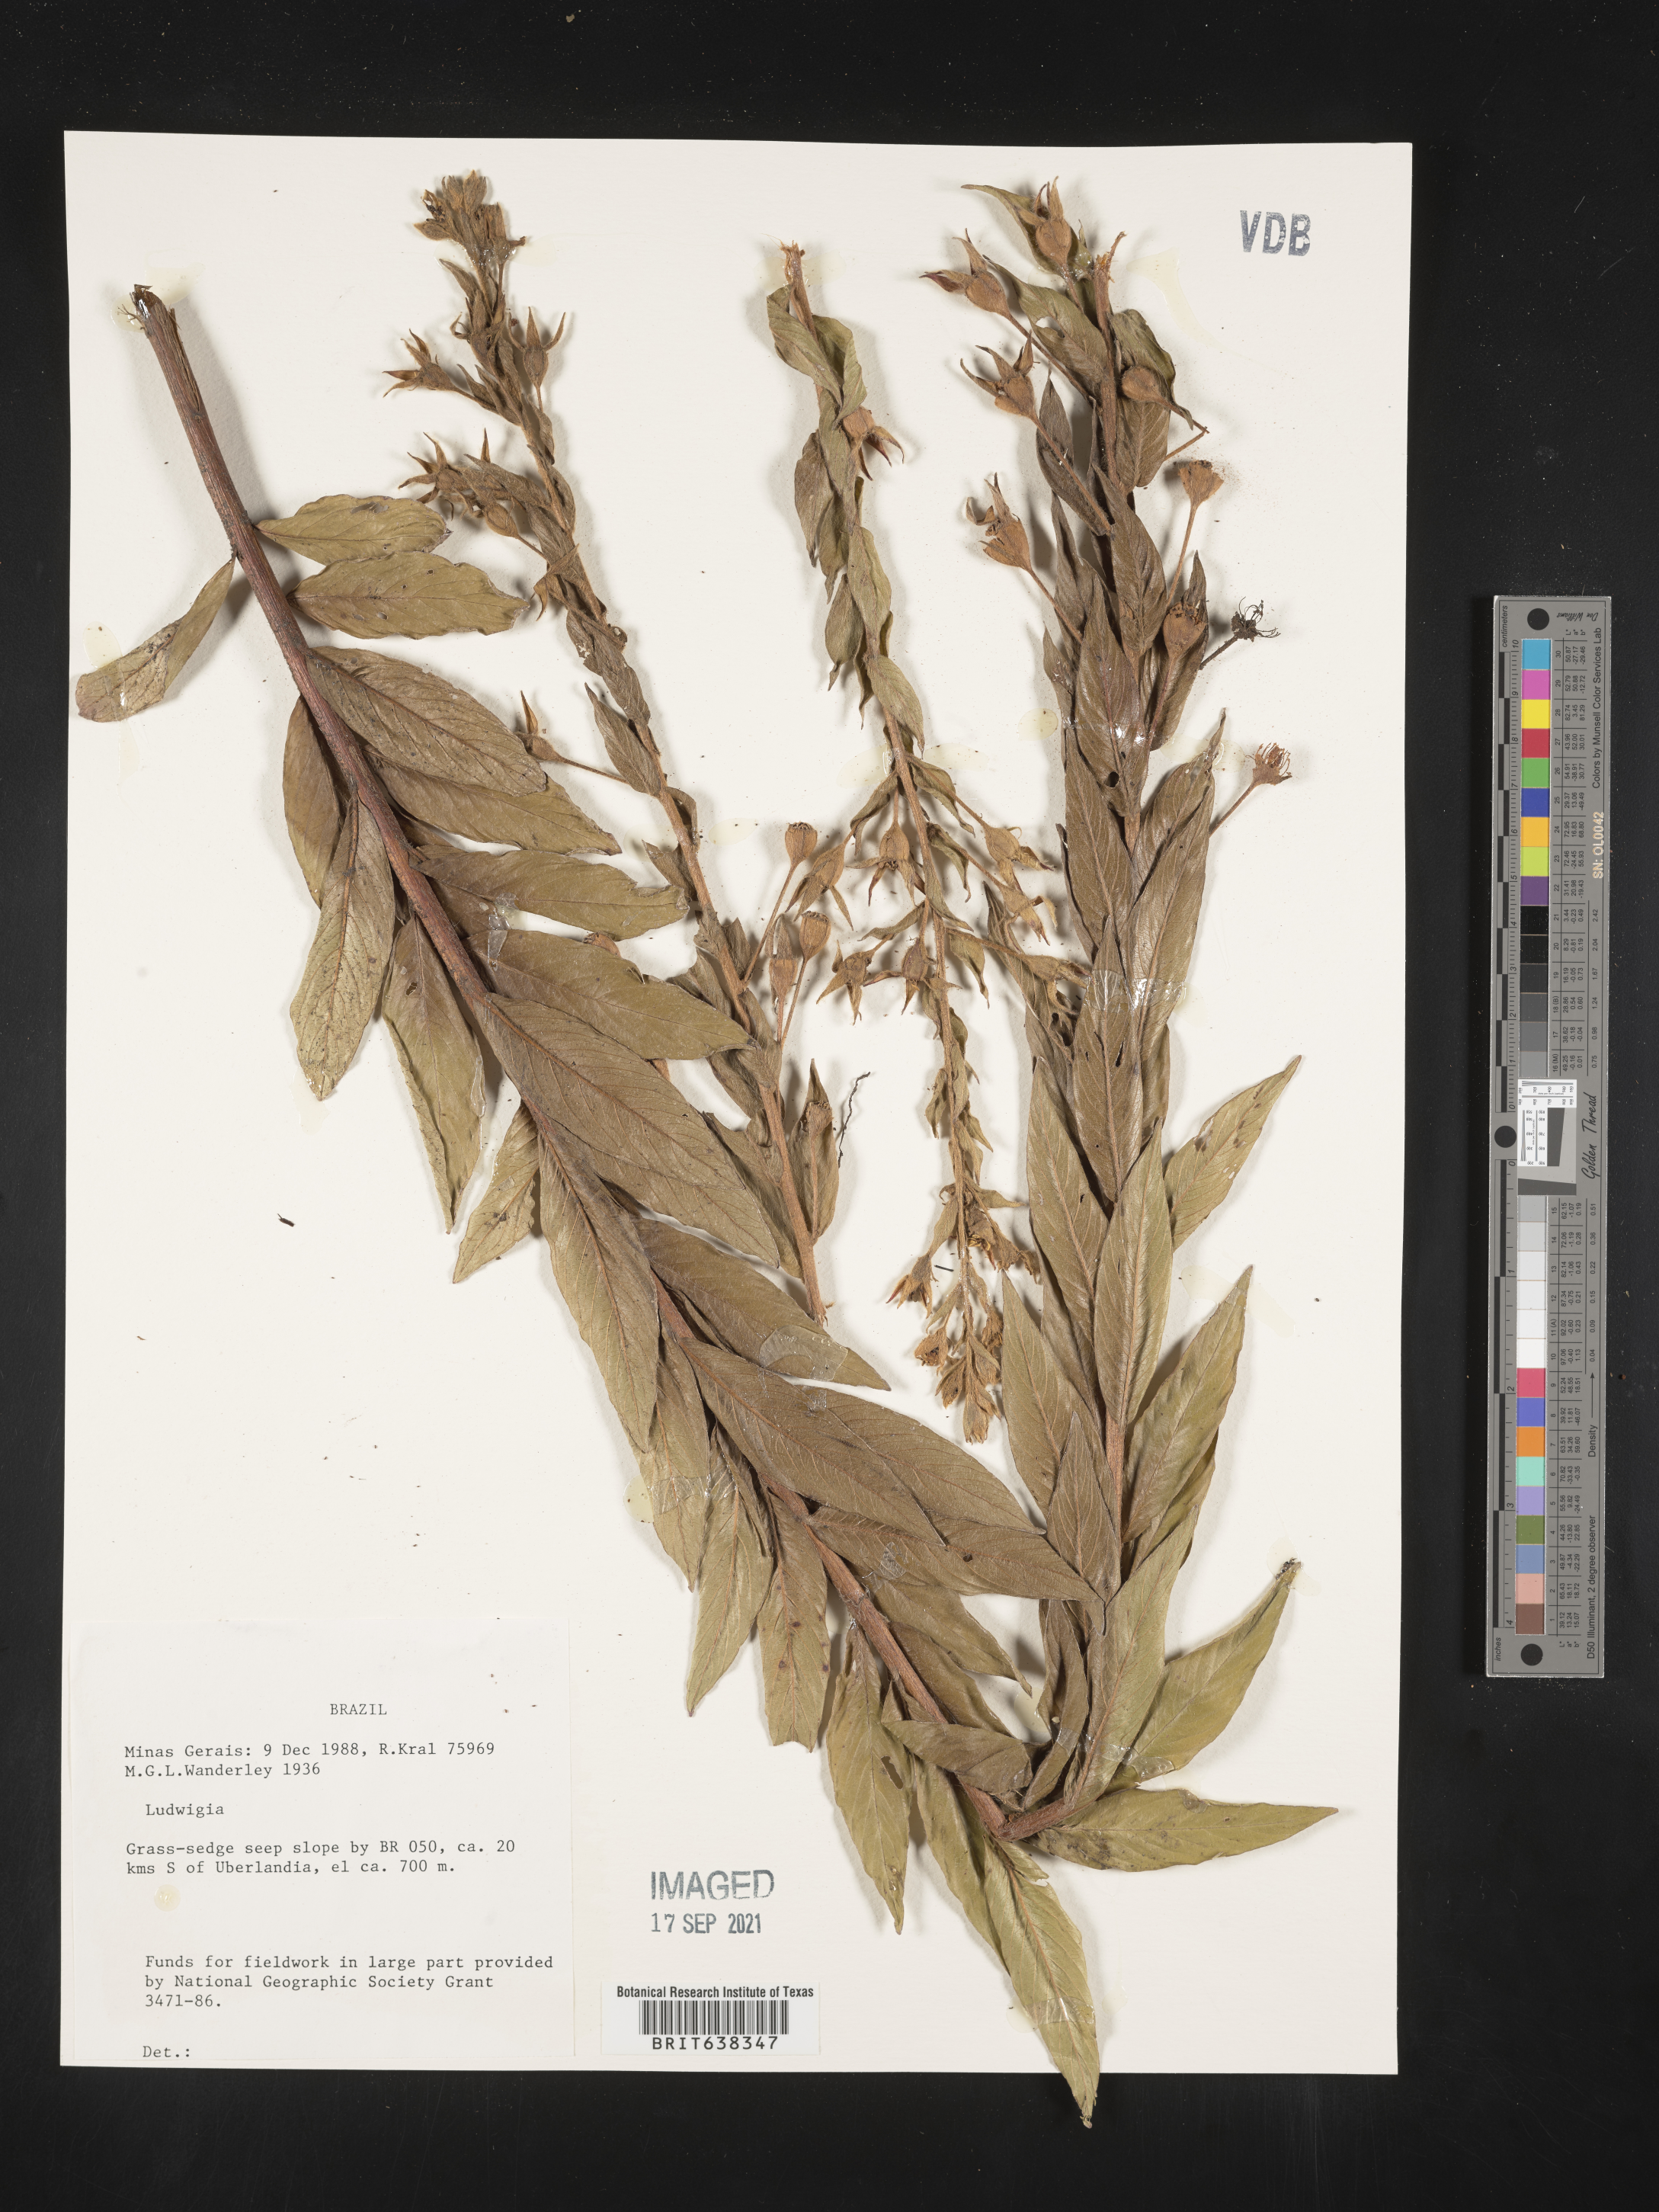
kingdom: Plantae
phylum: Tracheophyta
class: Magnoliopsida
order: Myrtales
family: Onagraceae
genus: Ludwigia
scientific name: Ludwigia
